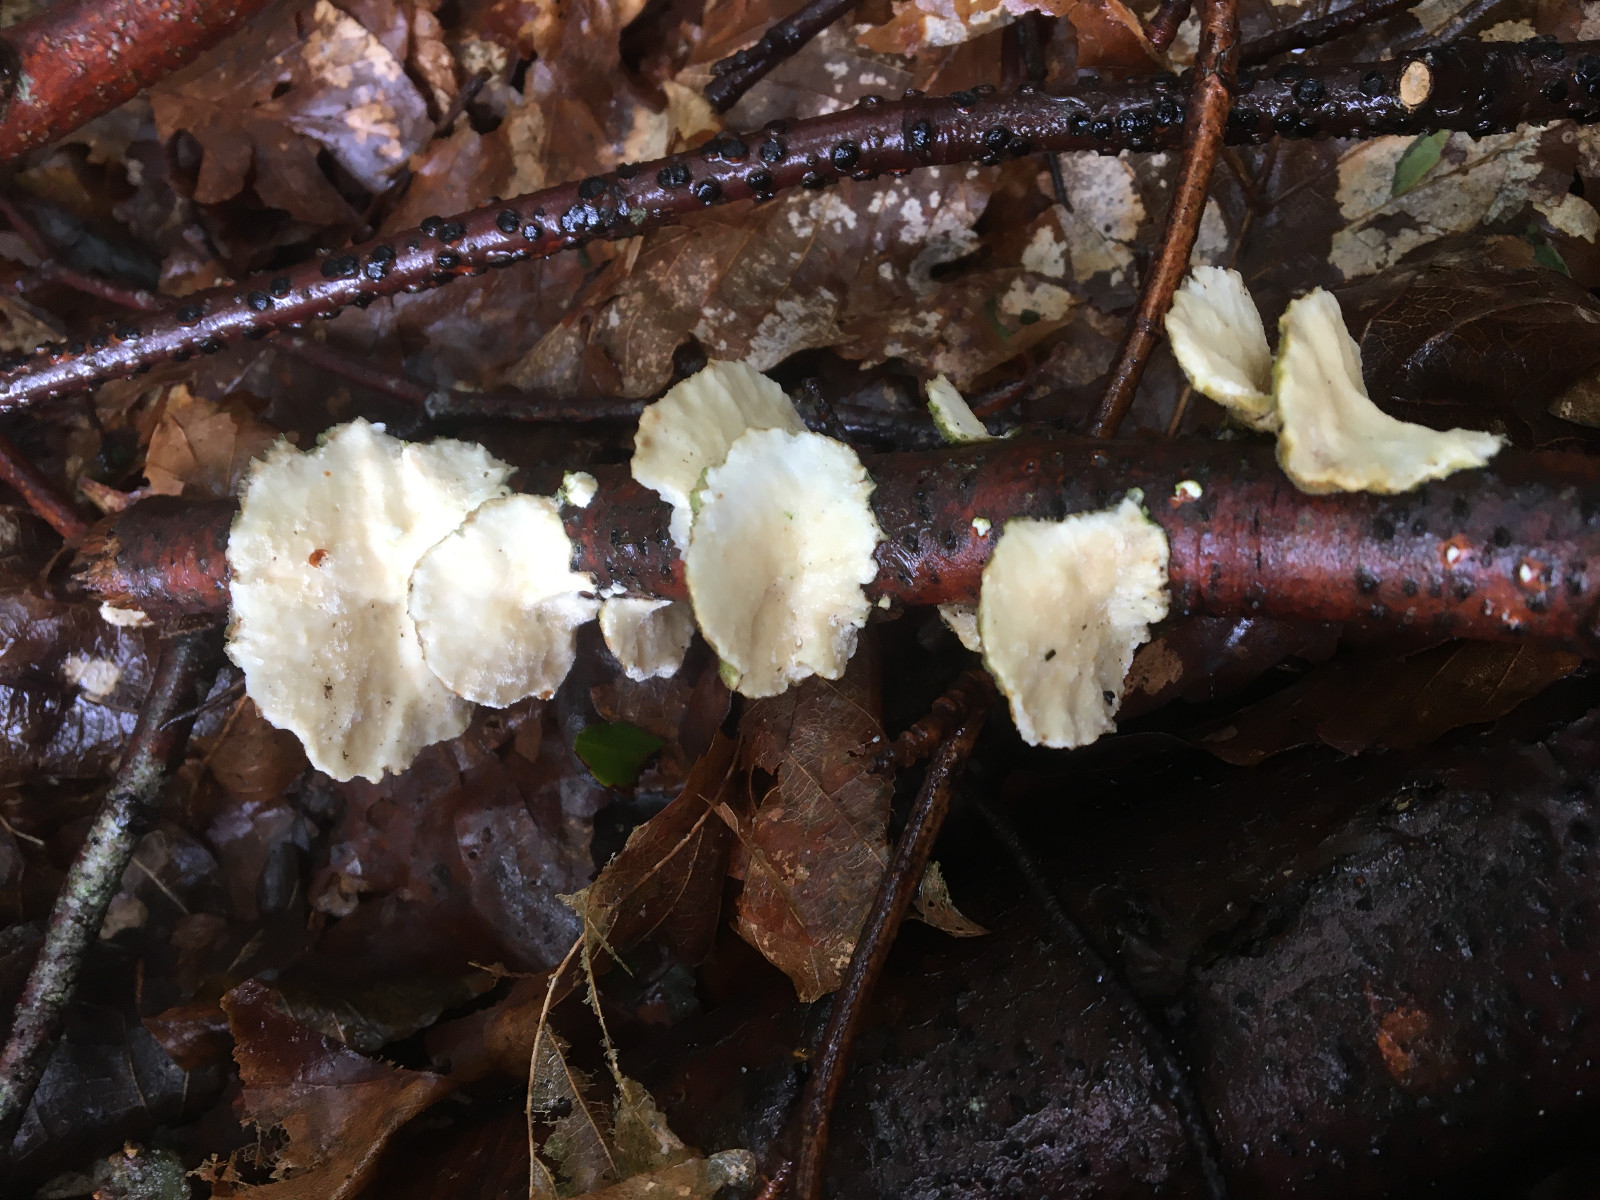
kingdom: Fungi
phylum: Basidiomycota
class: Agaricomycetes
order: Polyporales
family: Polyporaceae
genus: Trametes
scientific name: Trametes versicolor
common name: broget læderporesvamp
